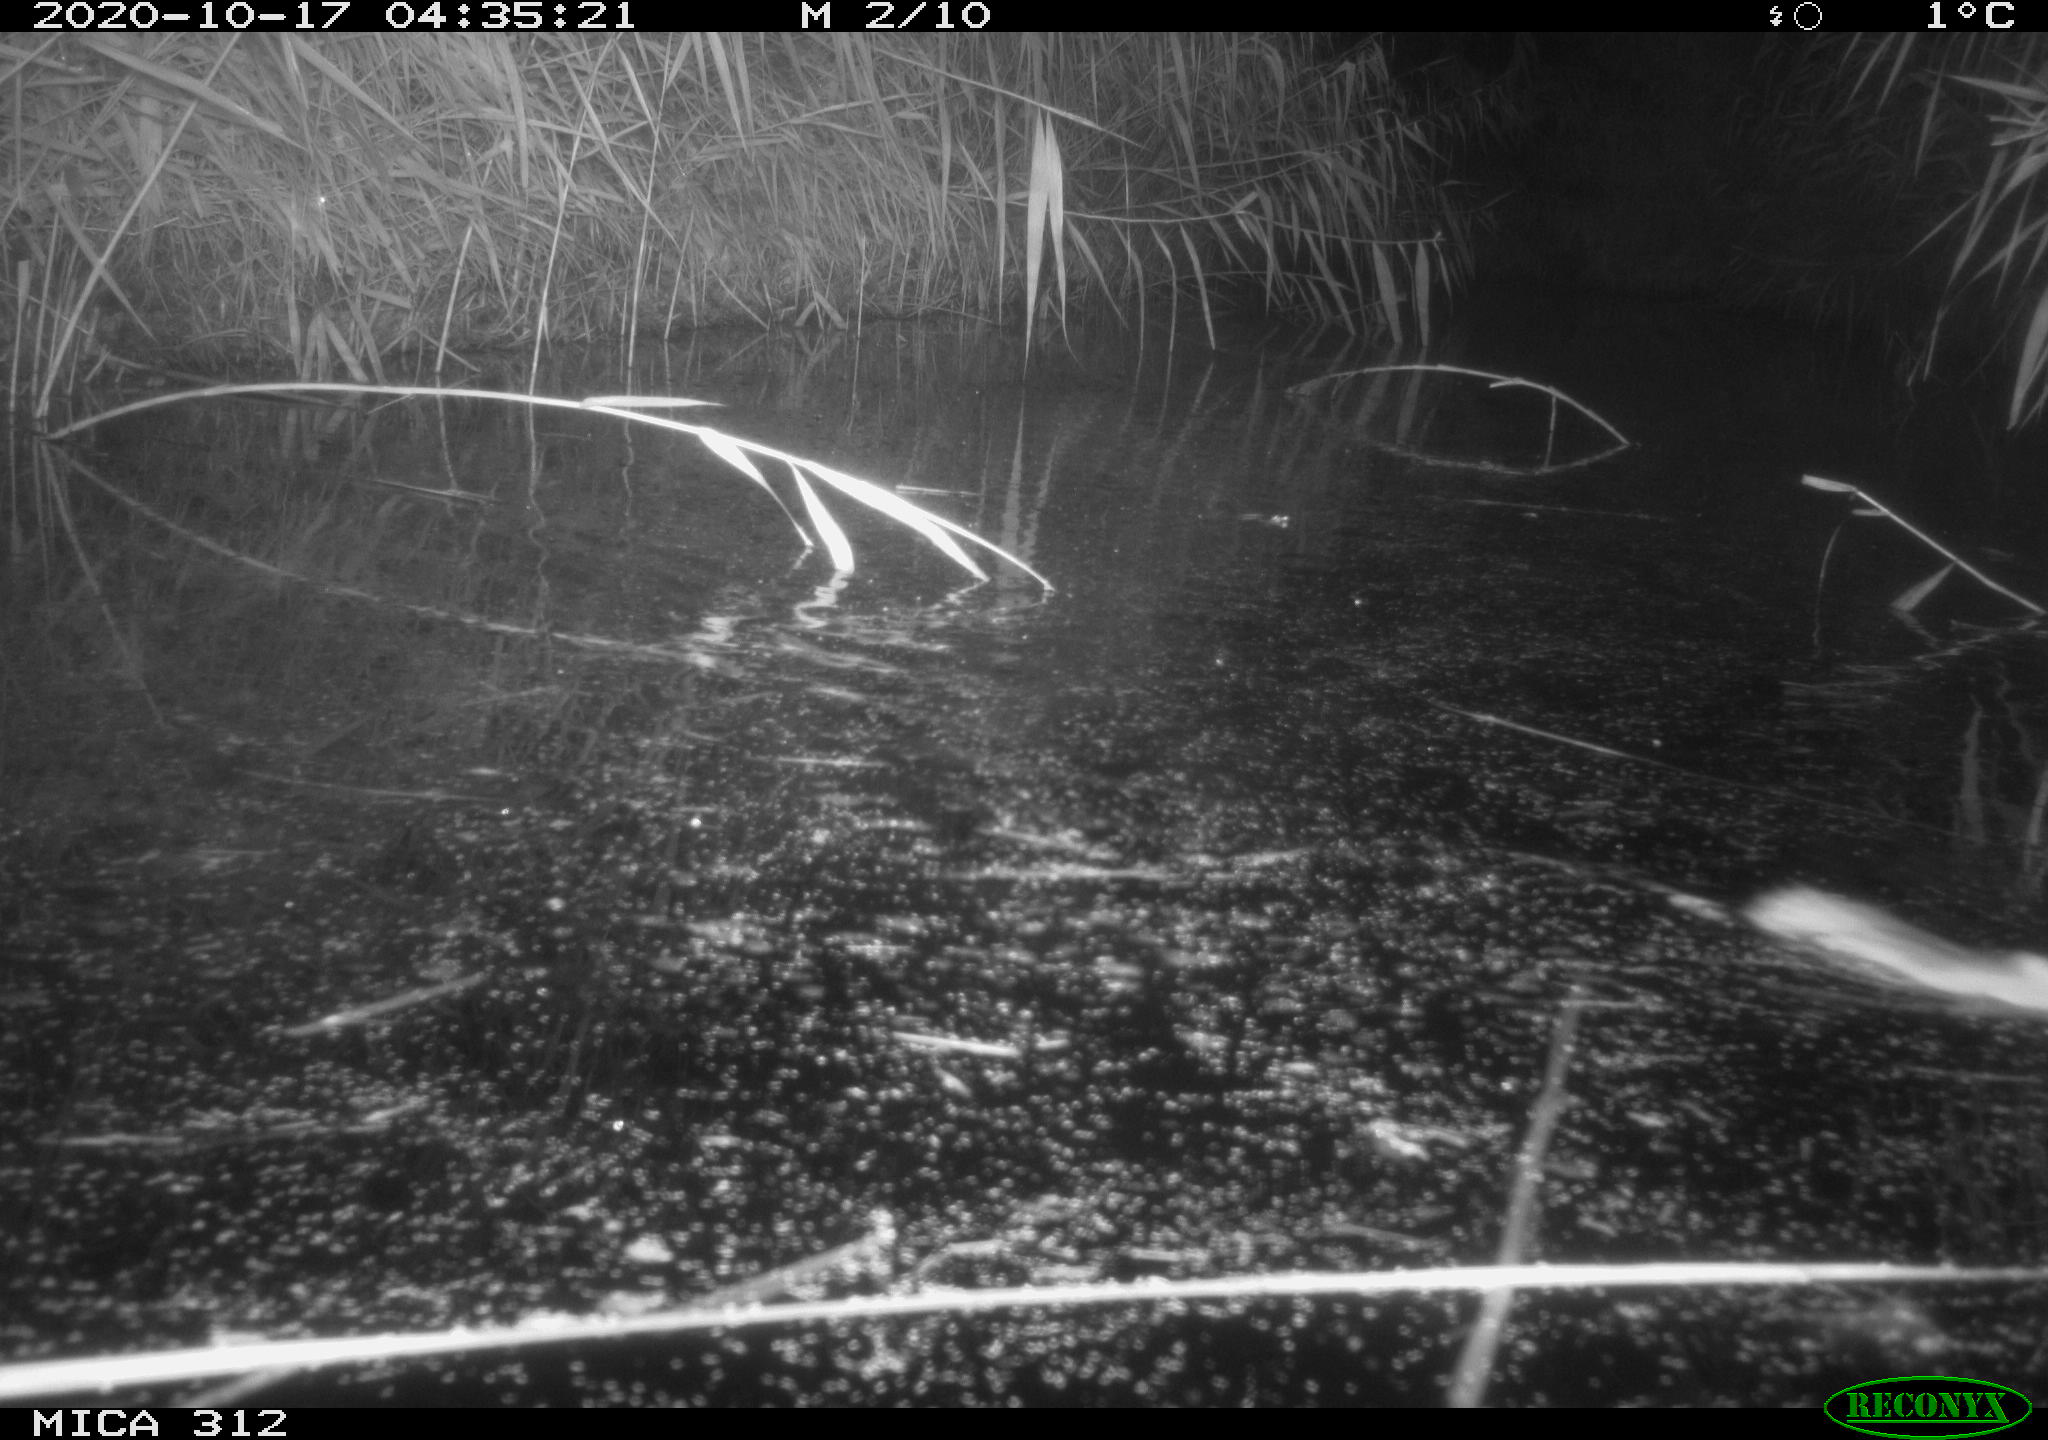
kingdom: Animalia
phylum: Chordata
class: Mammalia
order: Rodentia
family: Muridae
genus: Rattus
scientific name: Rattus norvegicus
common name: Brown rat
